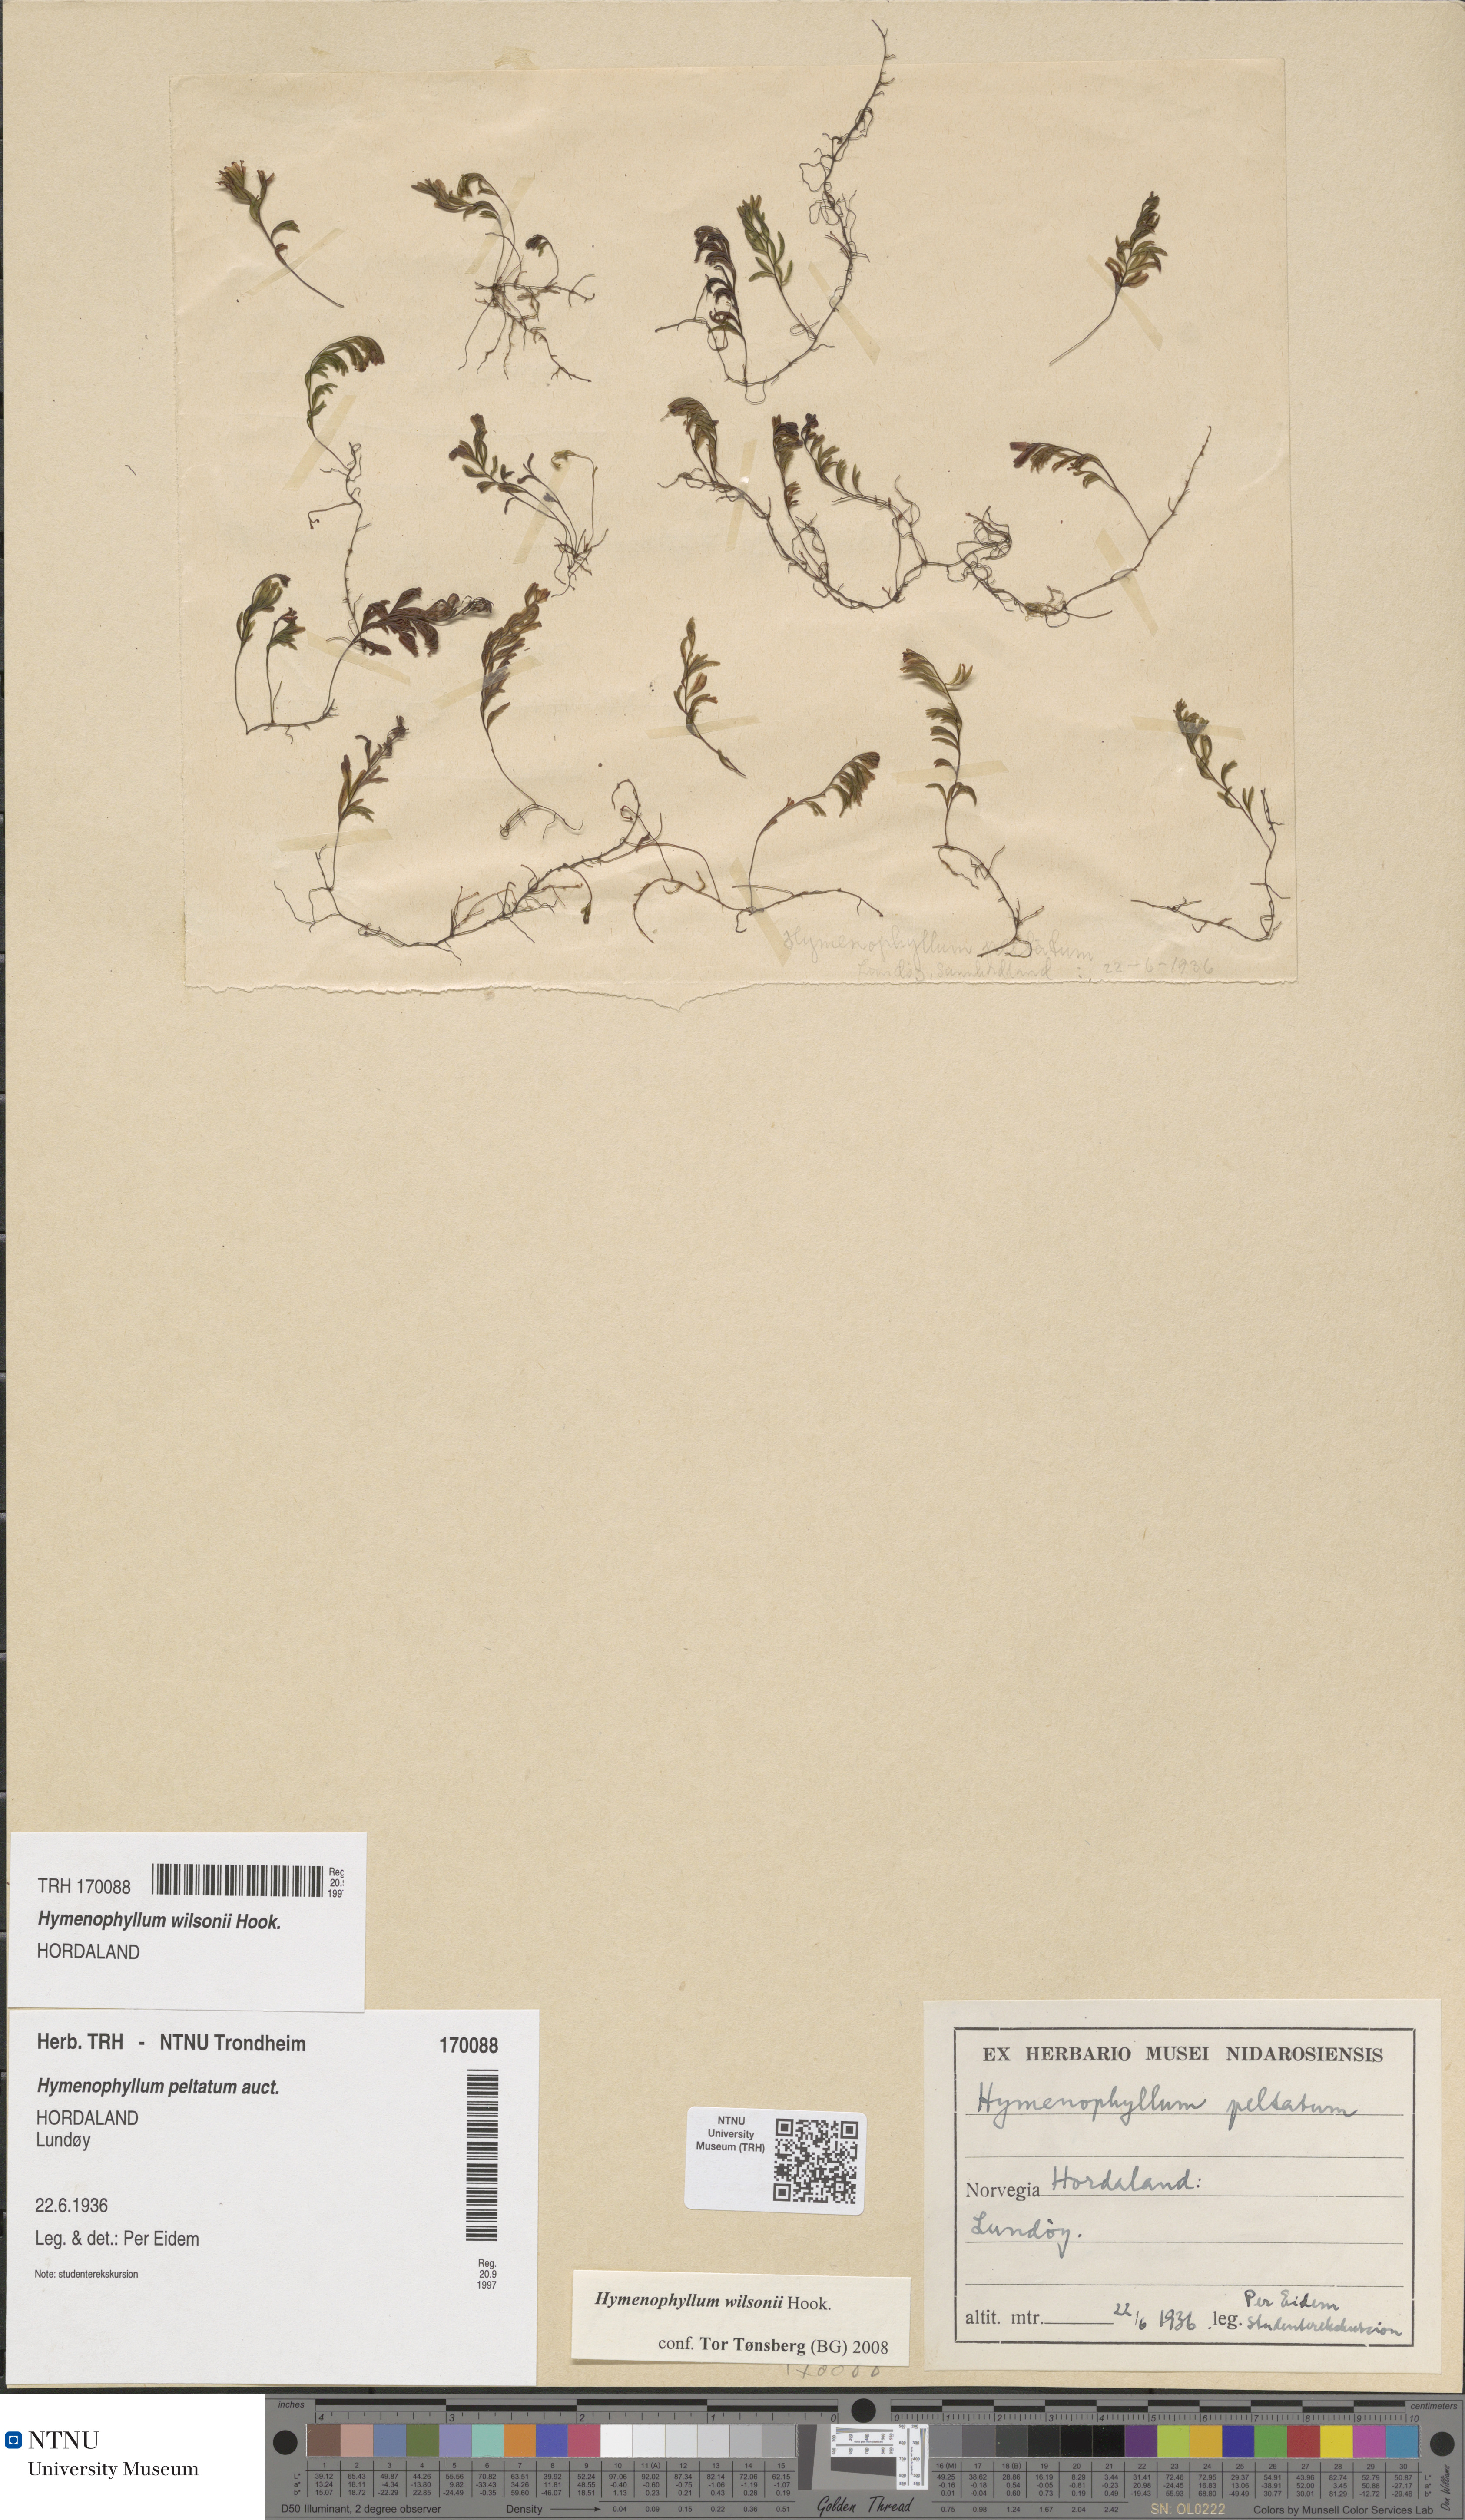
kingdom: Plantae
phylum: Tracheophyta
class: Polypodiopsida
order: Hymenophyllales
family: Hymenophyllaceae
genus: Hymenophyllum
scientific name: Hymenophyllum peltatum
